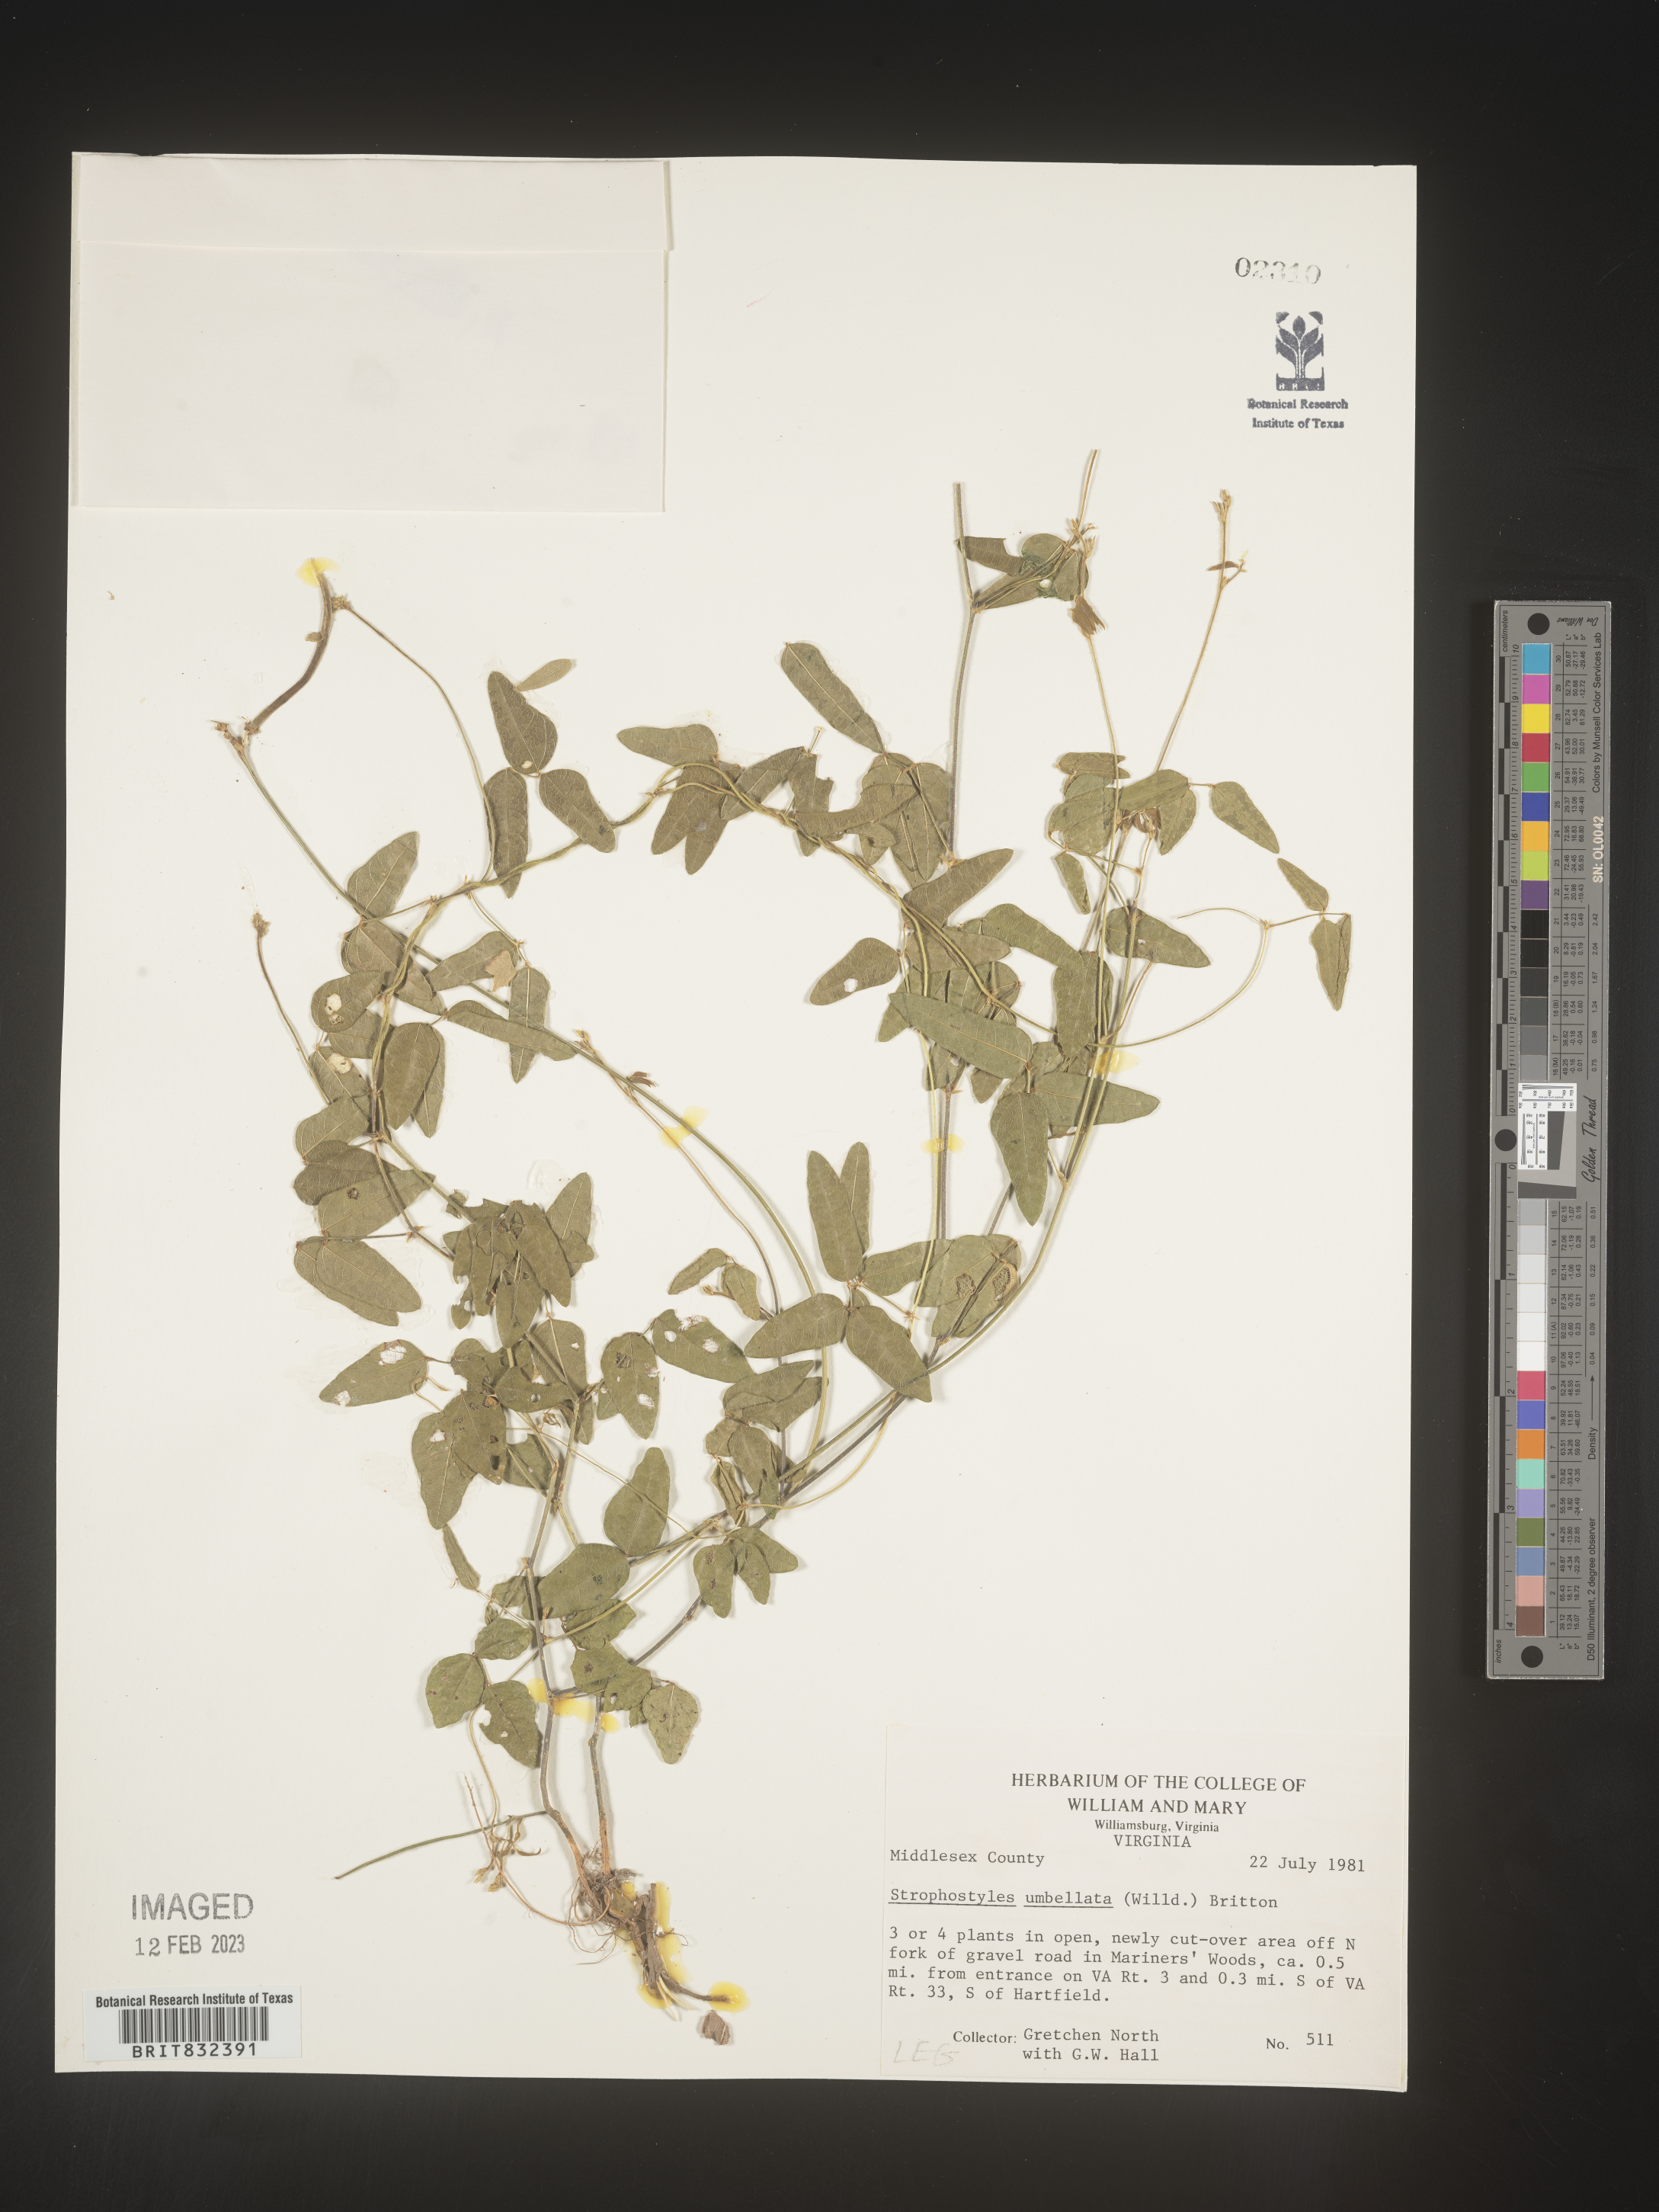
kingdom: Plantae
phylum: Tracheophyta
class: Magnoliopsida
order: Fabales
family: Fabaceae
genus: Strophostyles
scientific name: Strophostyles umbellata
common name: Perennial wild bean
